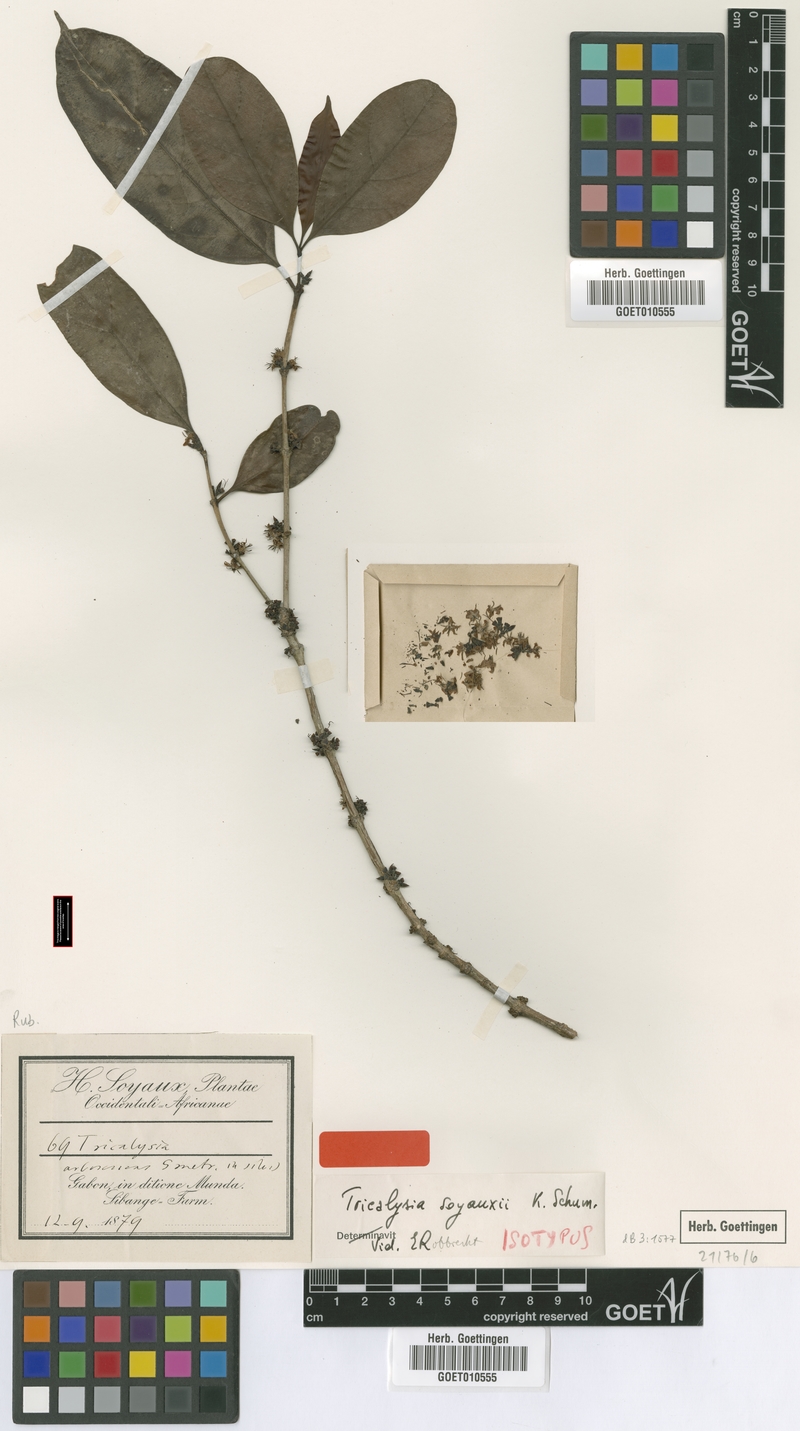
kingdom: Plantae
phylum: Tracheophyta
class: Magnoliopsida
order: Gentianales
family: Rubiaceae
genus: Tricalysia
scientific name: Tricalysia soyauxii
